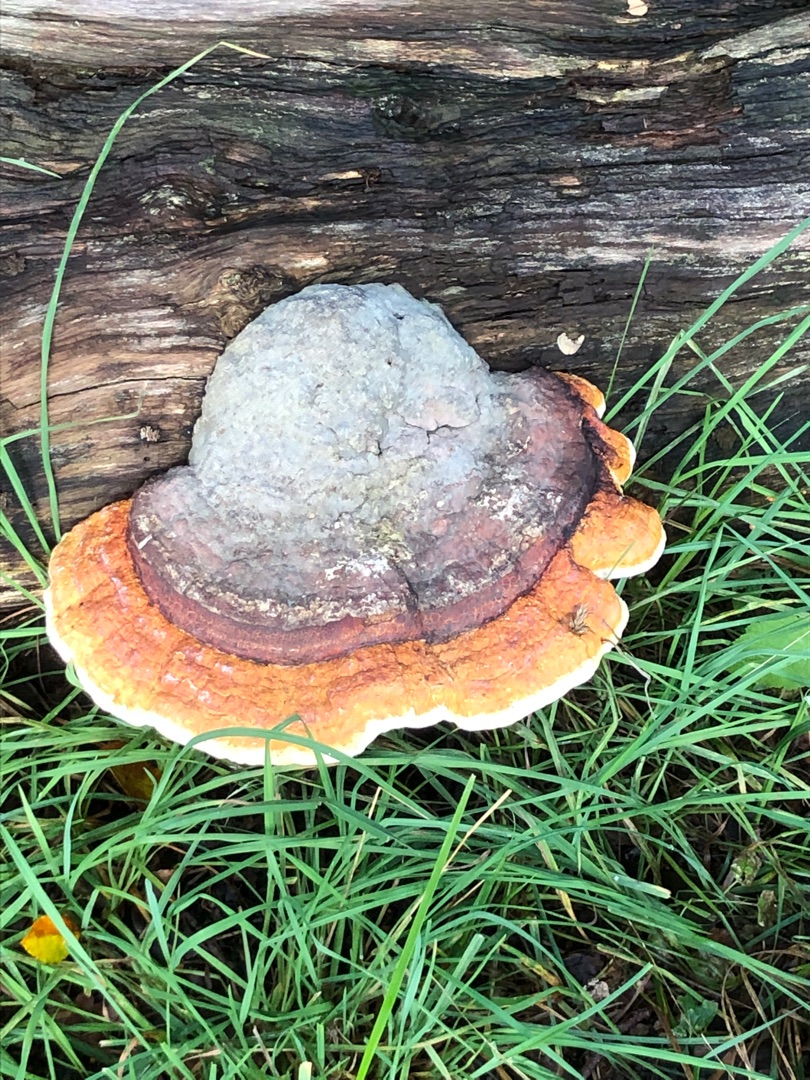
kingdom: Fungi
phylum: Basidiomycota
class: Agaricomycetes
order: Polyporales
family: Fomitopsidaceae
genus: Fomitopsis
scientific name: Fomitopsis pinicola
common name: Randbæltet hovporesvamp
